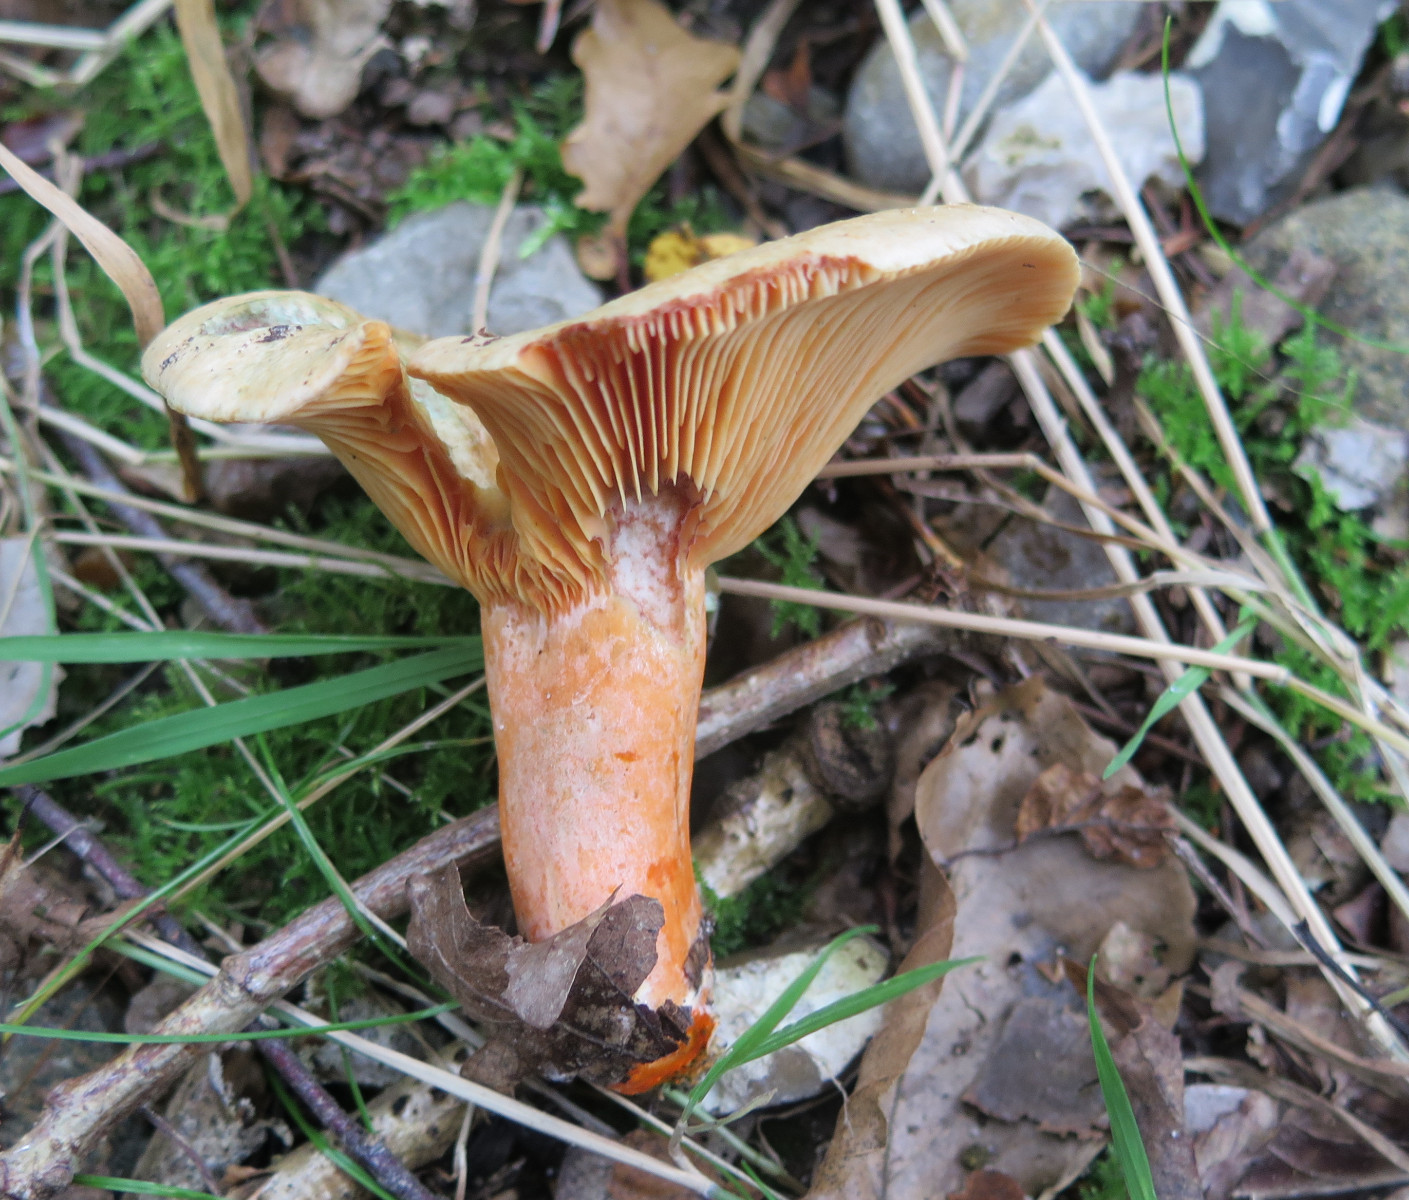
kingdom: Fungi
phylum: Basidiomycota
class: Agaricomycetes
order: Russulales
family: Russulaceae
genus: Lactarius
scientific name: Lactarius deterrimus
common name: gran-mælkehat
